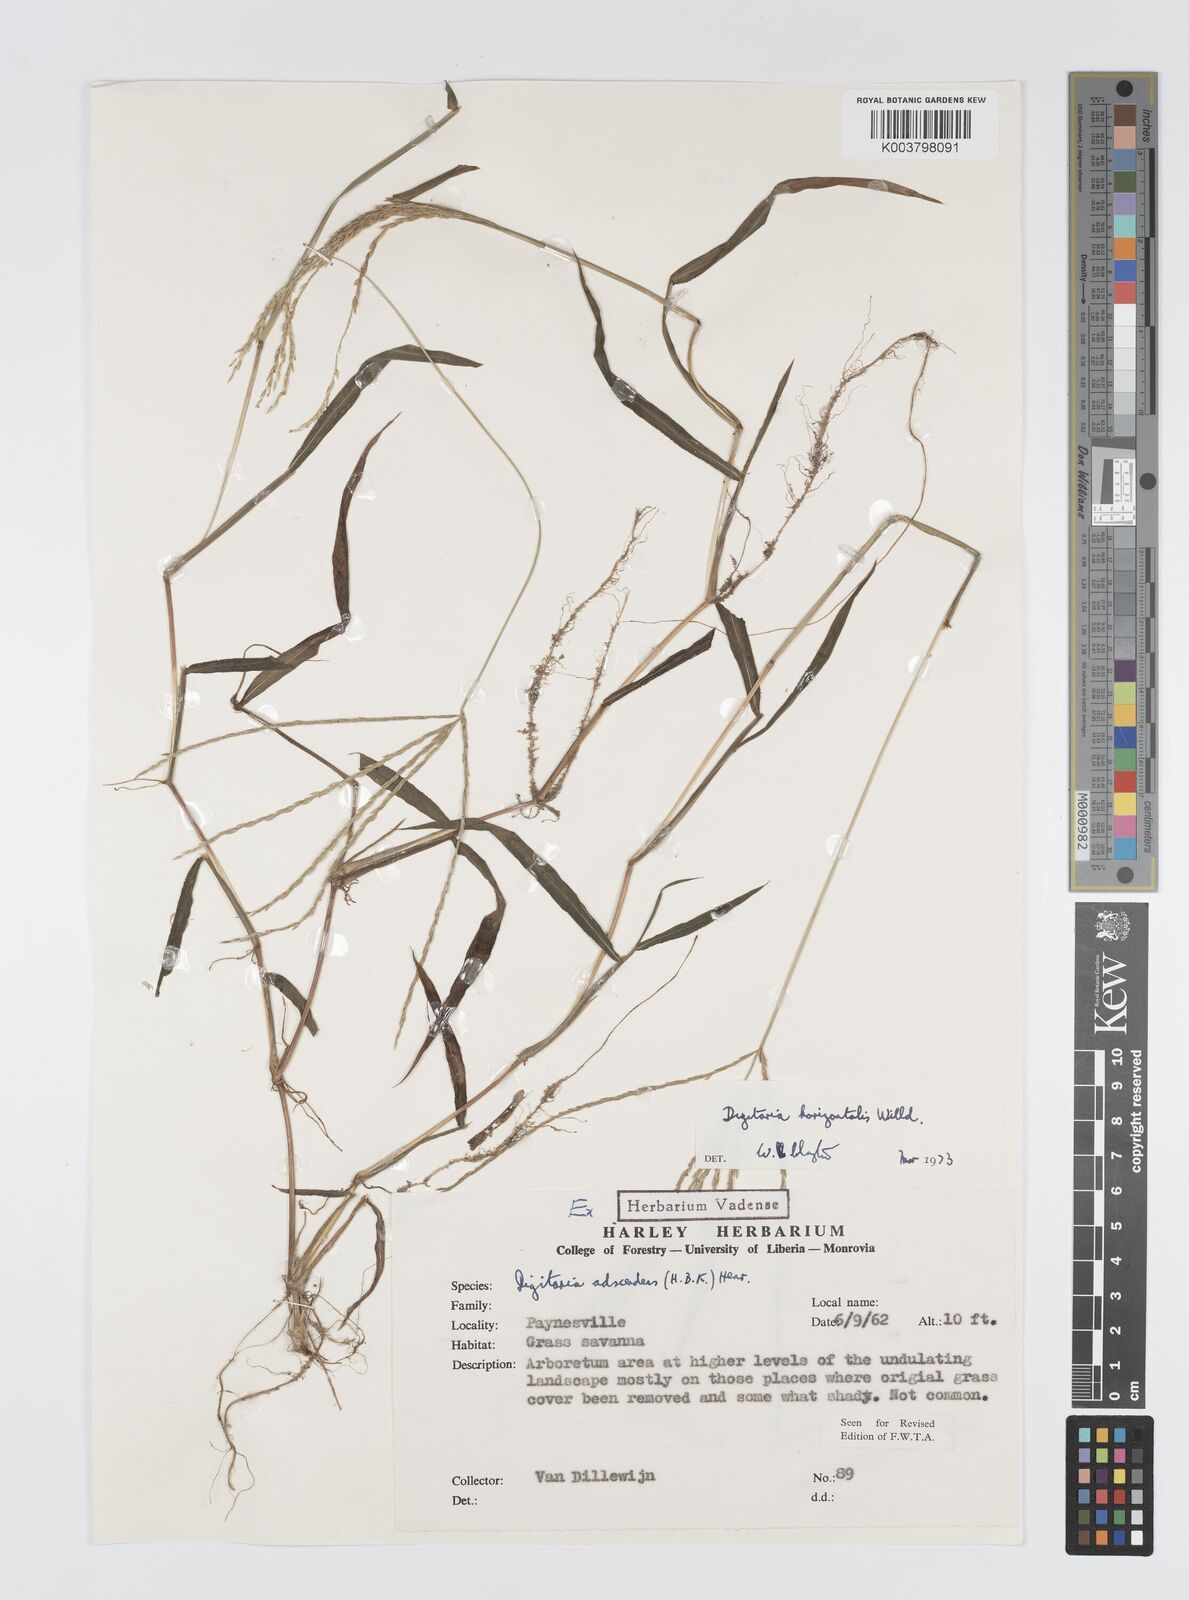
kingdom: Plantae
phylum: Tracheophyta
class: Liliopsida
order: Poales
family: Poaceae
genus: Digitaria
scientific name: Digitaria horizontalis
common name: Jamaican crabgrass
